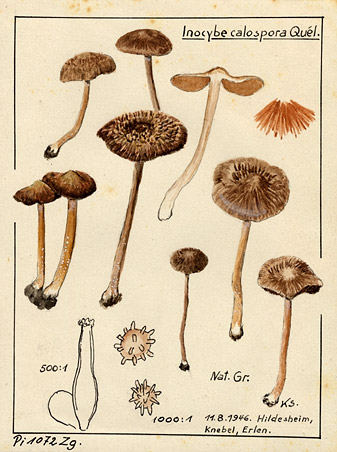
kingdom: Fungi
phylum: Basidiomycota
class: Agaricomycetes
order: Agaricales
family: Inocybaceae
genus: Inocybe
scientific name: Inocybe calospora
